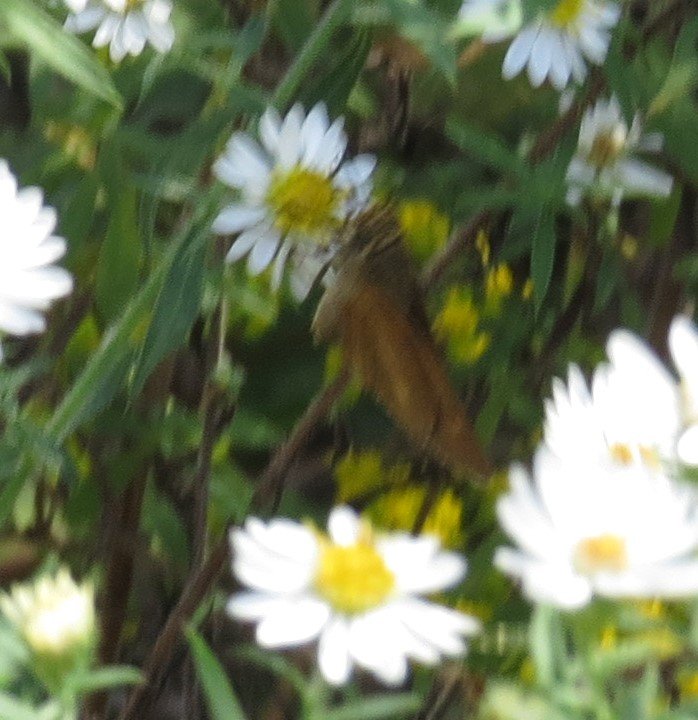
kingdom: Animalia
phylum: Arthropoda
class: Insecta
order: Lepidoptera
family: Hesperiidae
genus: Euphyes
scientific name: Euphyes dion
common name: Dion Skipper
